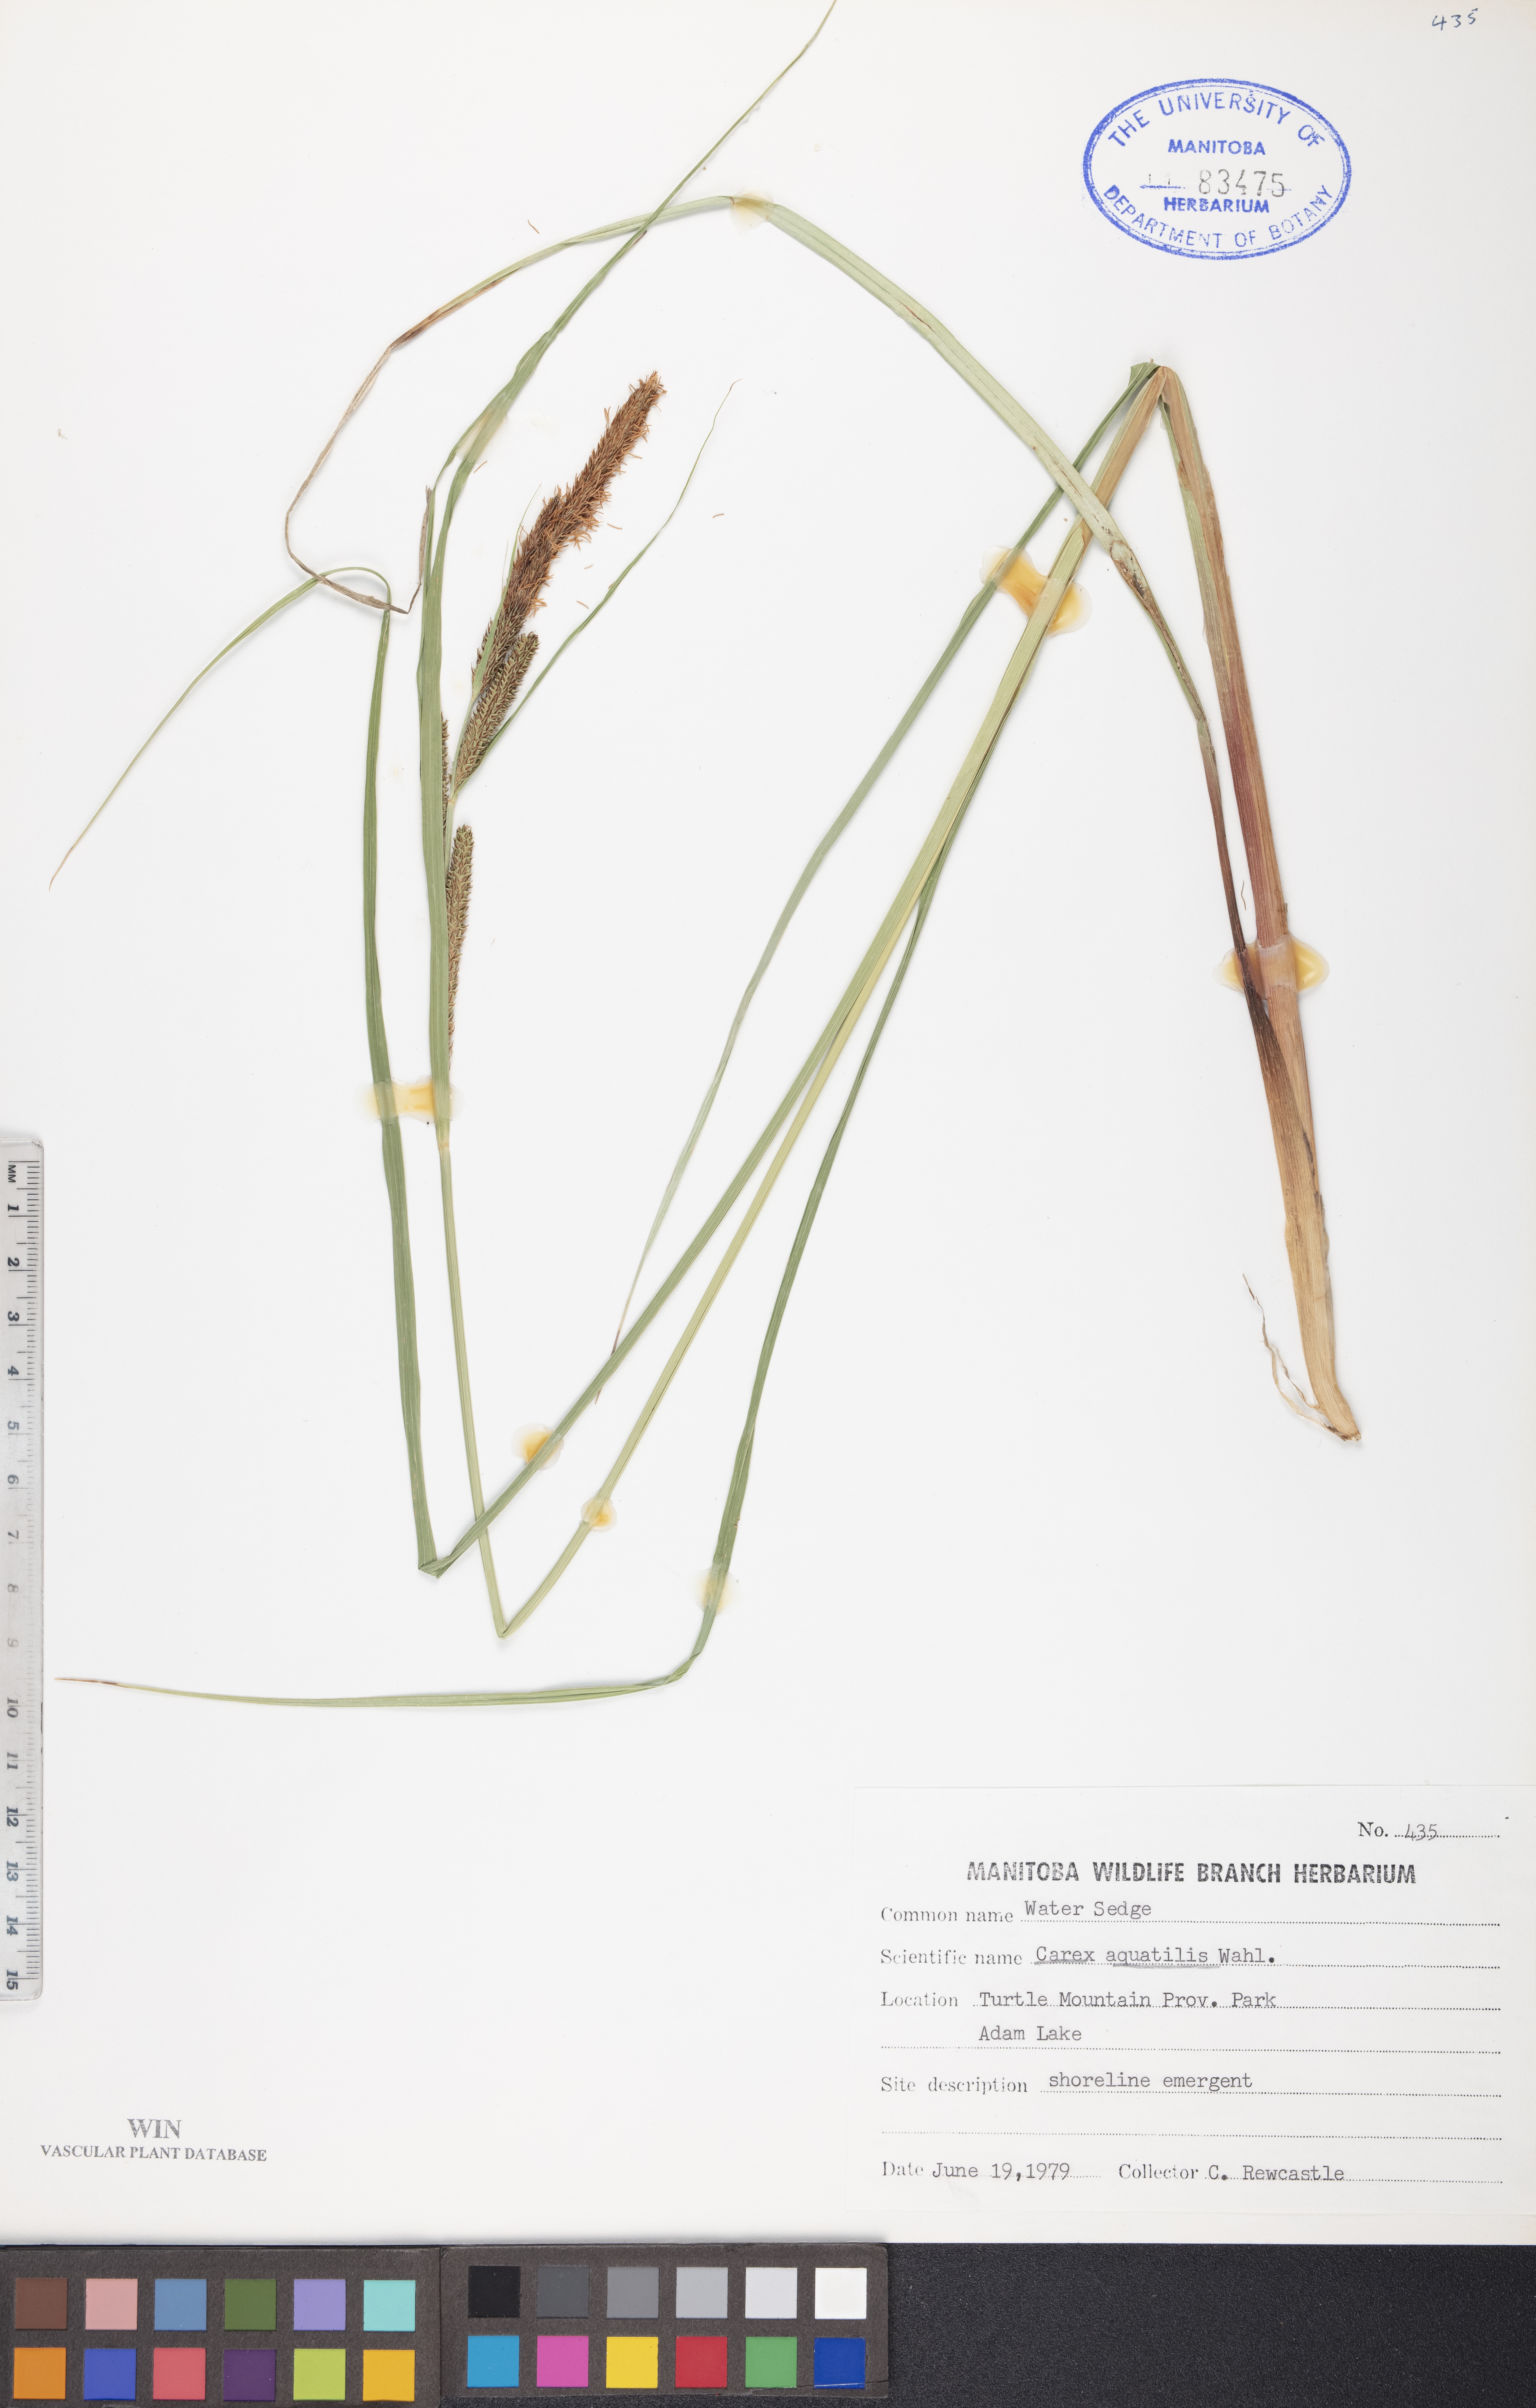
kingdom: Plantae
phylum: Tracheophyta
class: Liliopsida
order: Poales
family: Cyperaceae
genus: Carex
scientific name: Carex aquatilis
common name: Water sedge
